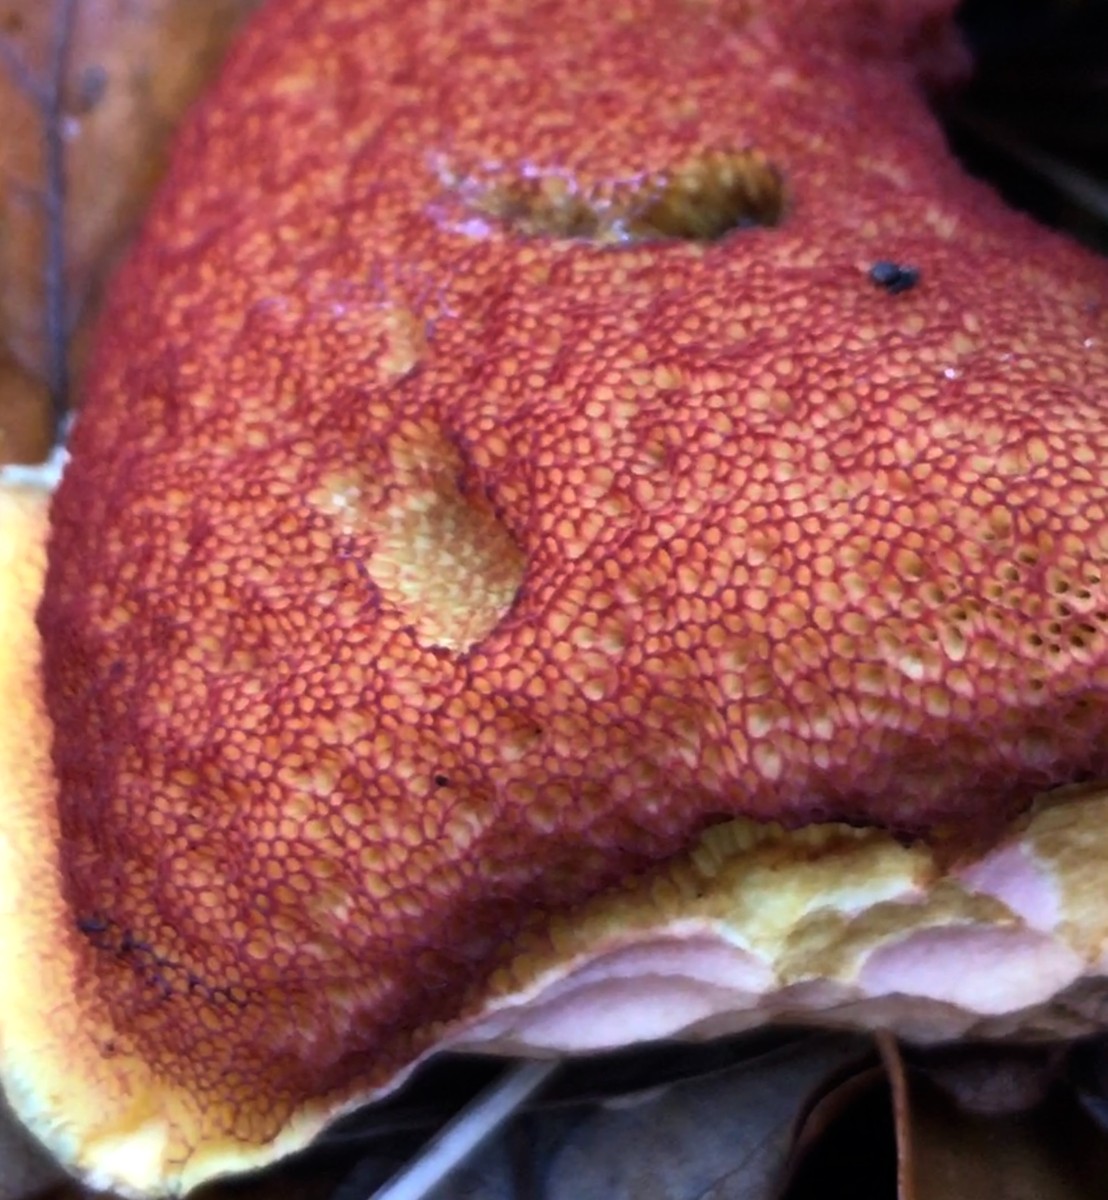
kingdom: Fungi
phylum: Basidiomycota
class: Agaricomycetes
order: Boletales
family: Boletaceae
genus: Neoboletus
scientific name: Neoboletus erythropus
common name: punktstokket indigorørhat
